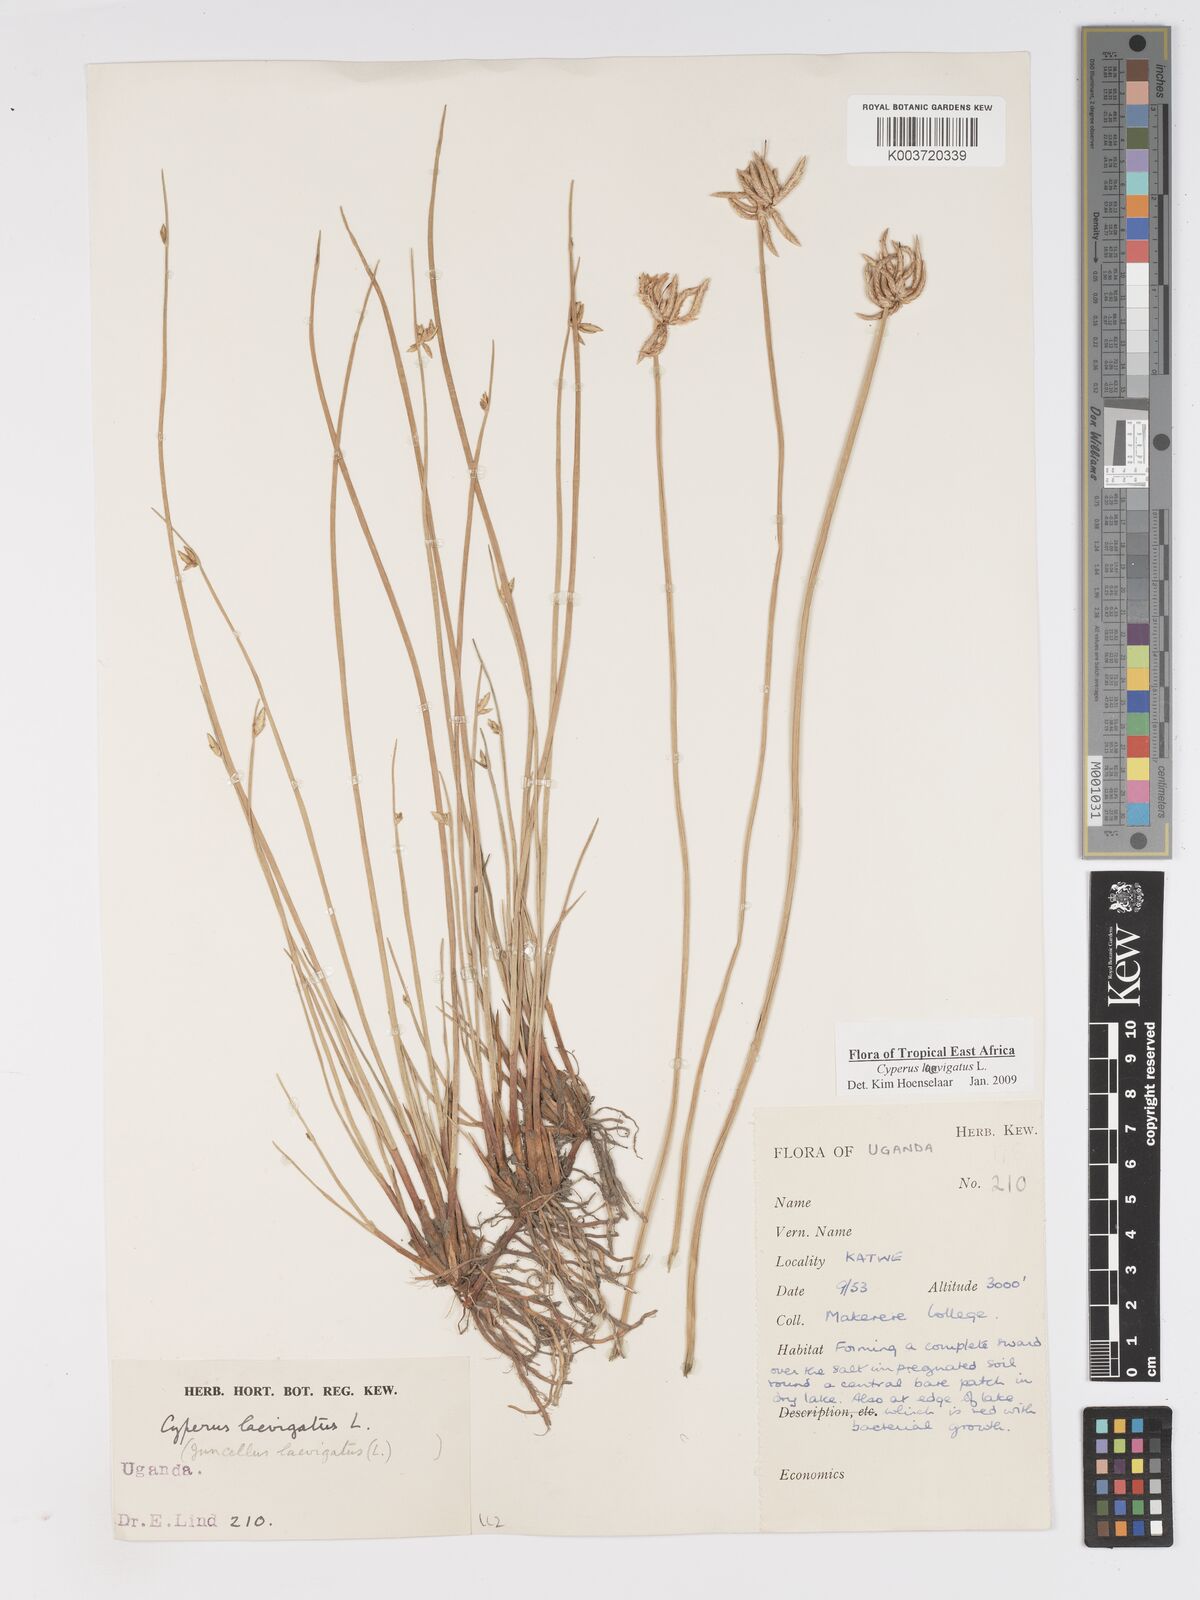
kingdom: Plantae
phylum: Tracheophyta
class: Liliopsida
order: Poales
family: Cyperaceae
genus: Cyperus
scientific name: Cyperus laevigatus
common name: Smooth flat sedge
